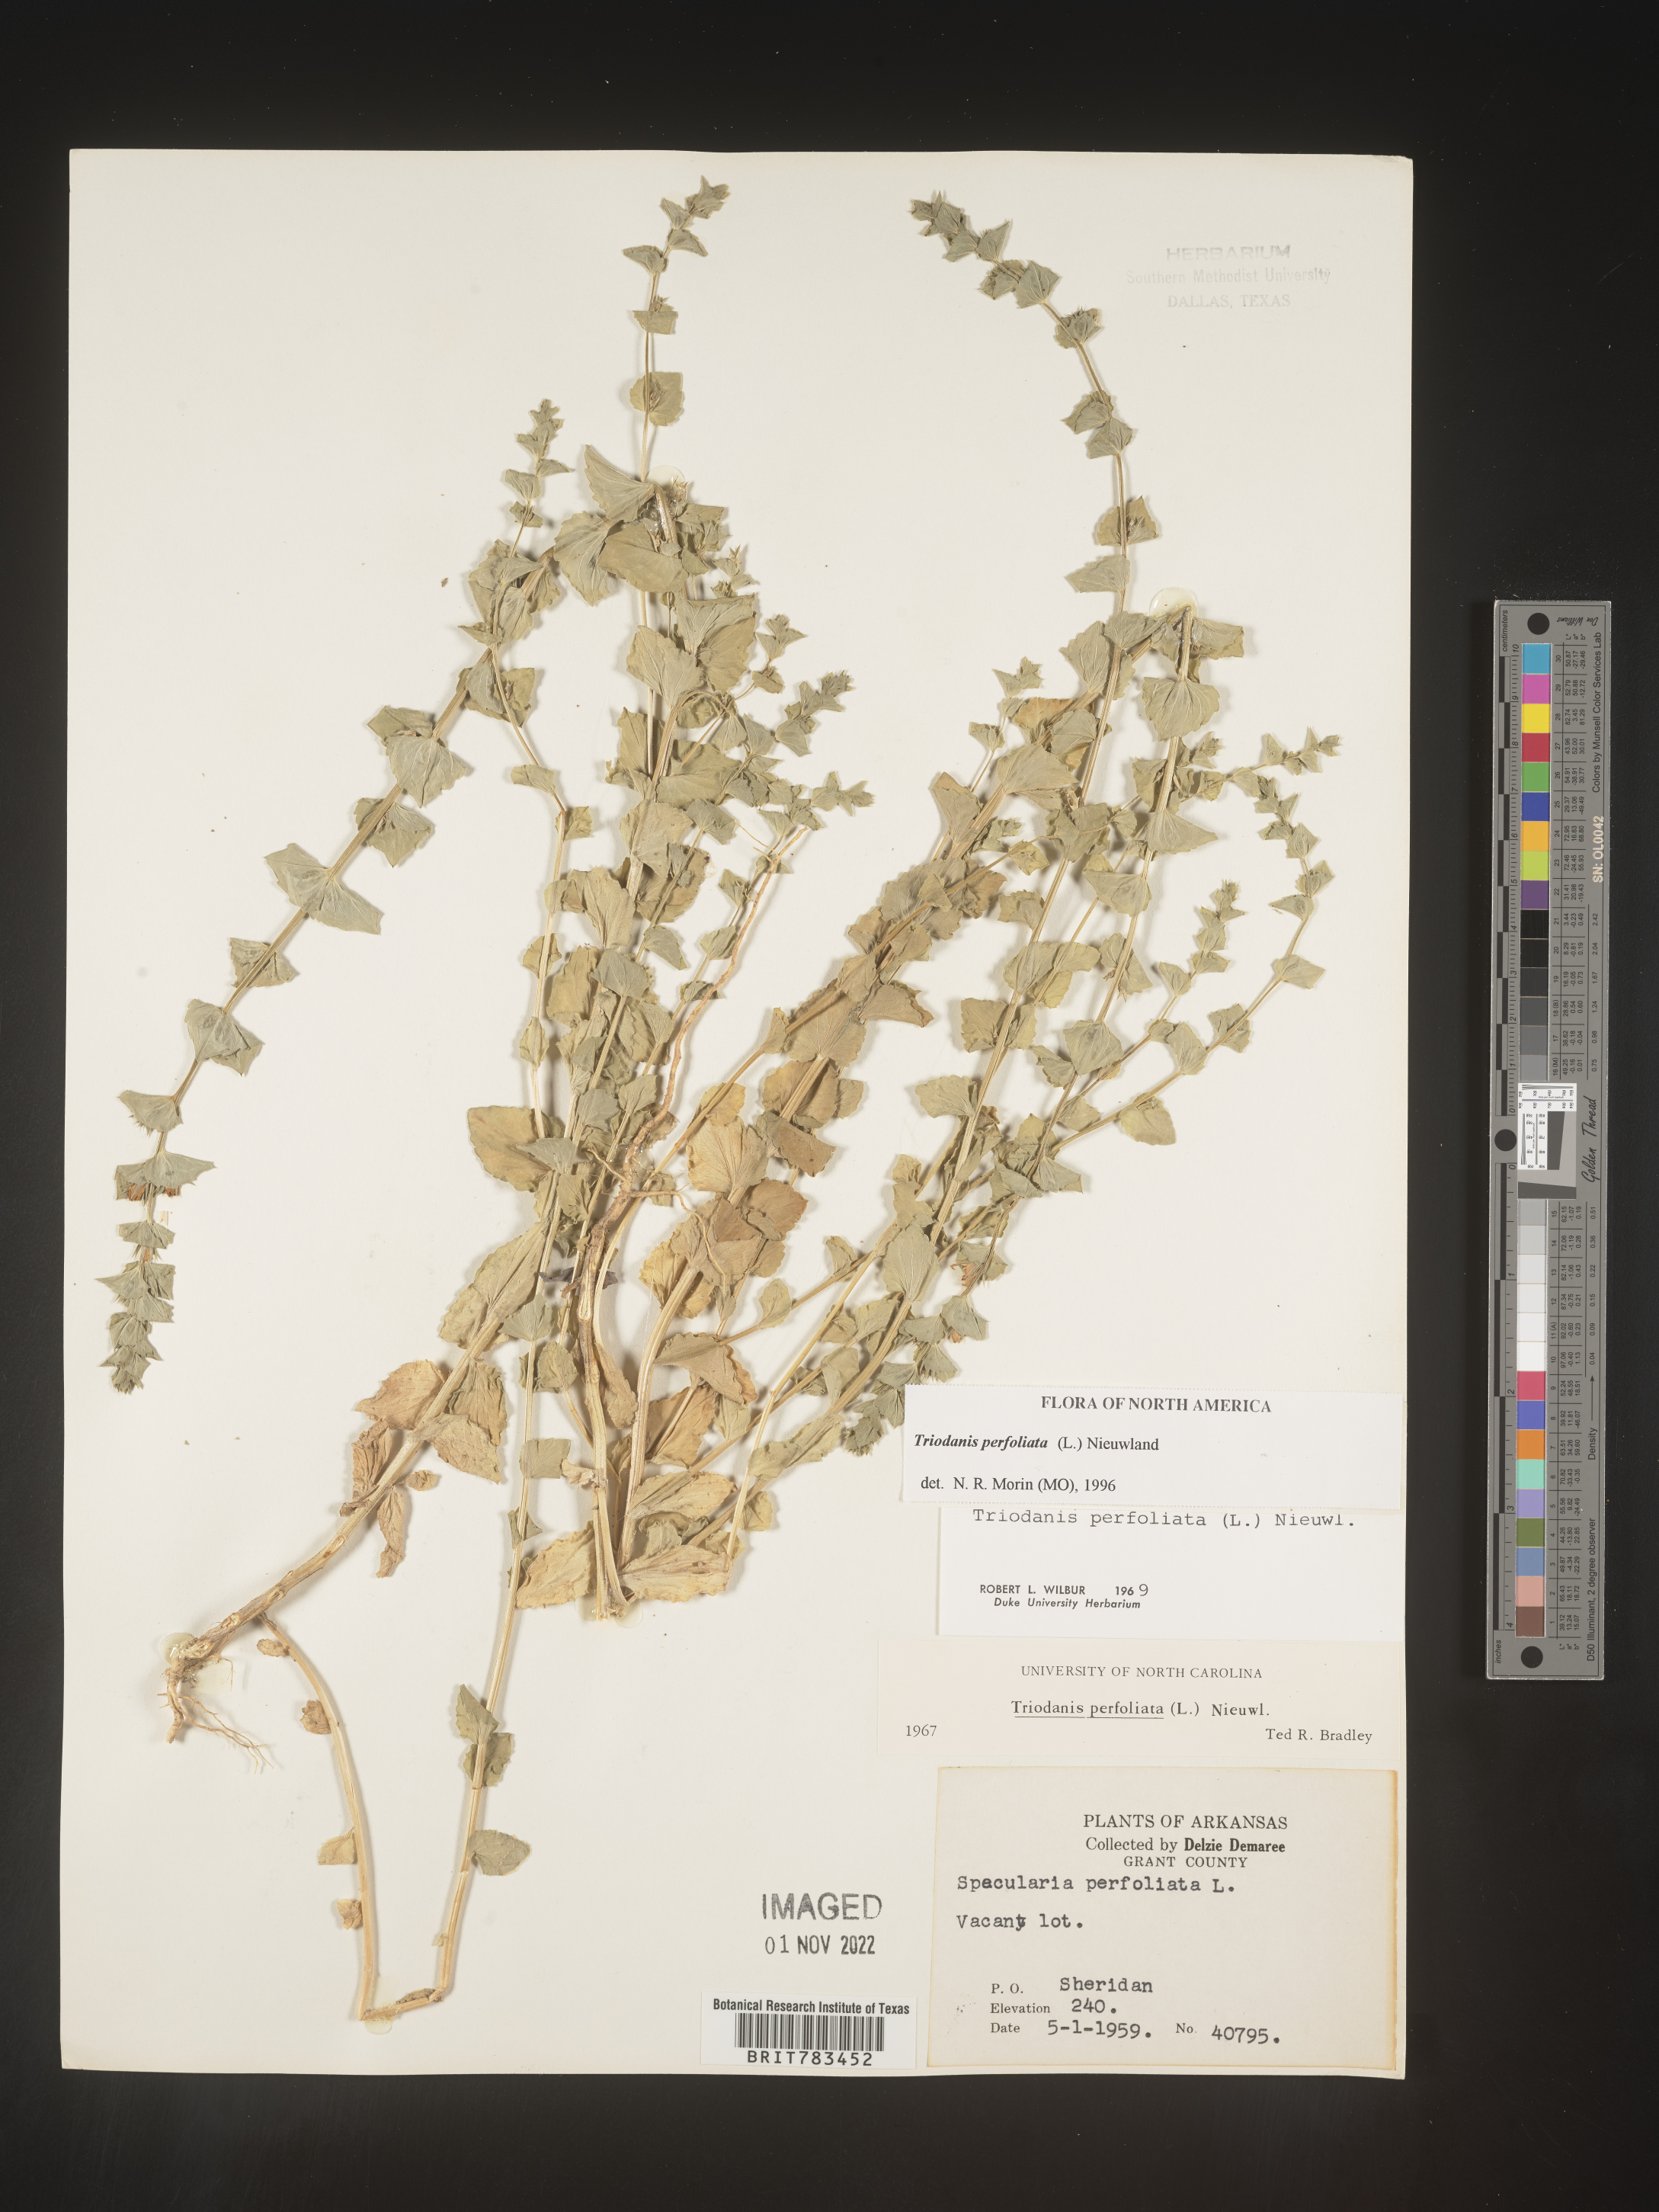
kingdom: Plantae
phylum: Tracheophyta
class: Magnoliopsida
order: Asterales
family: Campanulaceae
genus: Triodanis
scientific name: Triodanis perfoliata
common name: Clasping venus' looking-glass
